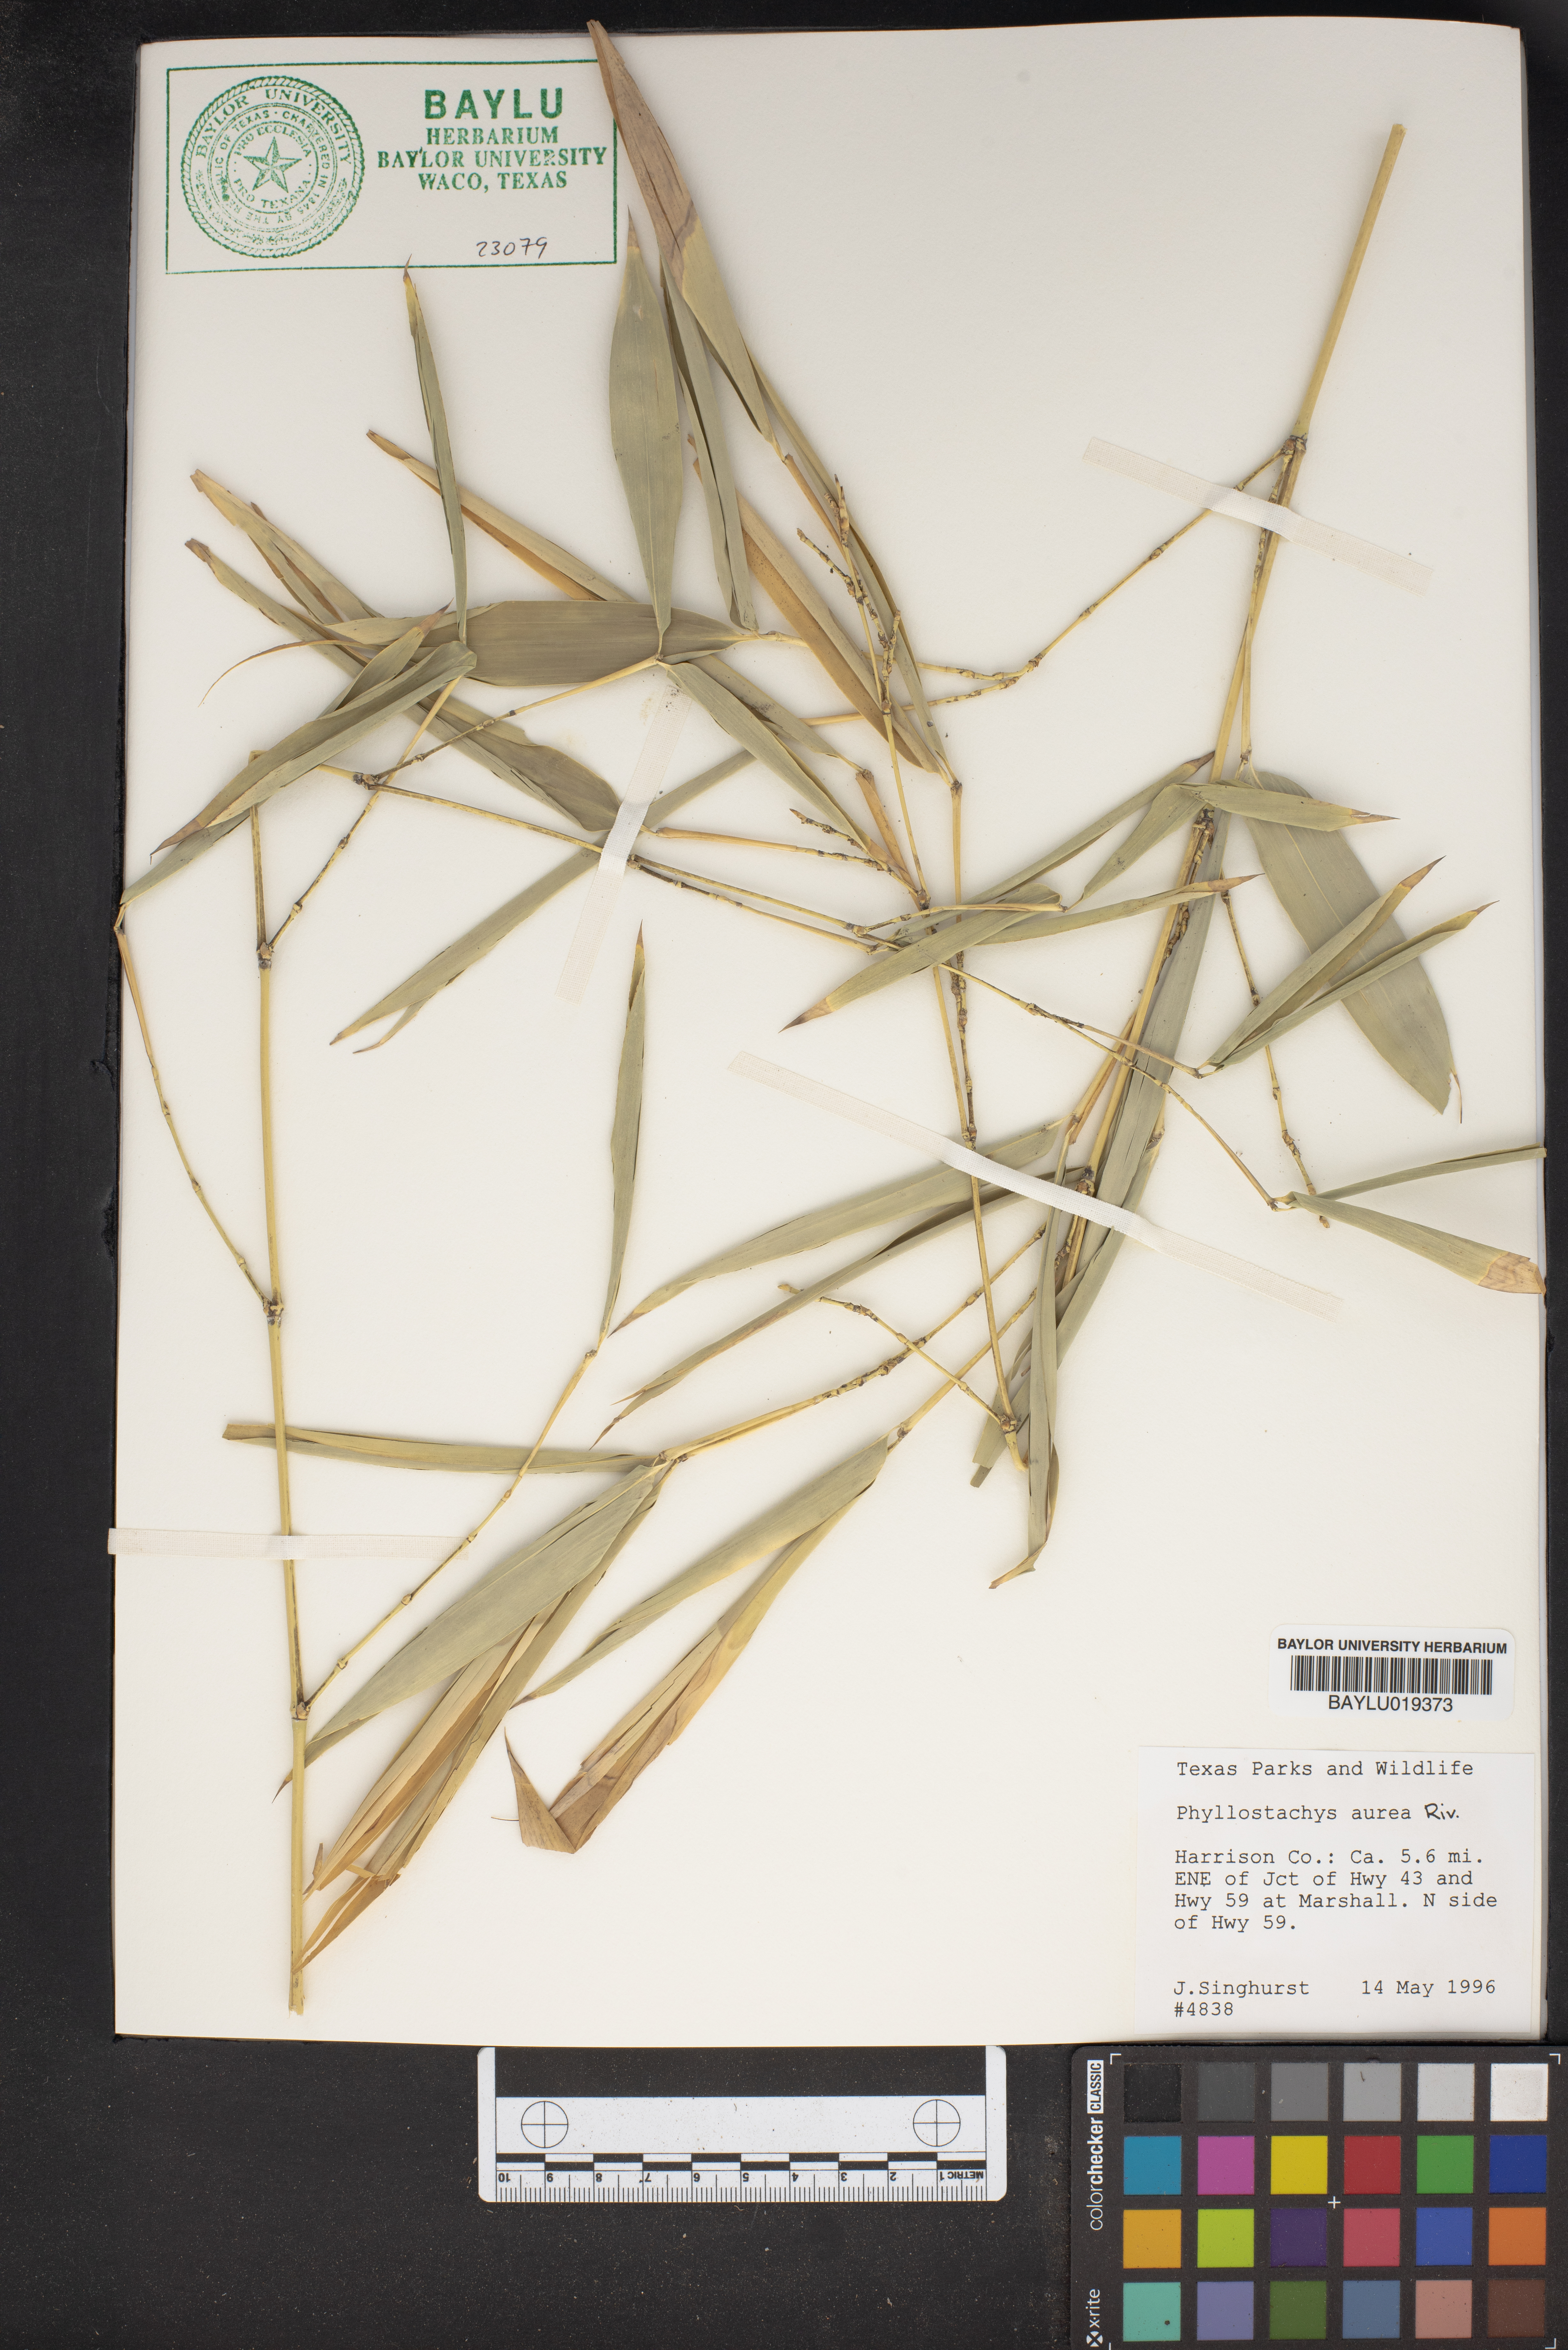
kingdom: Plantae
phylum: Tracheophyta
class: Liliopsida
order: Poales
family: Poaceae
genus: Phyllostachys
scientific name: Phyllostachys aurea
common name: Golden bamboo
